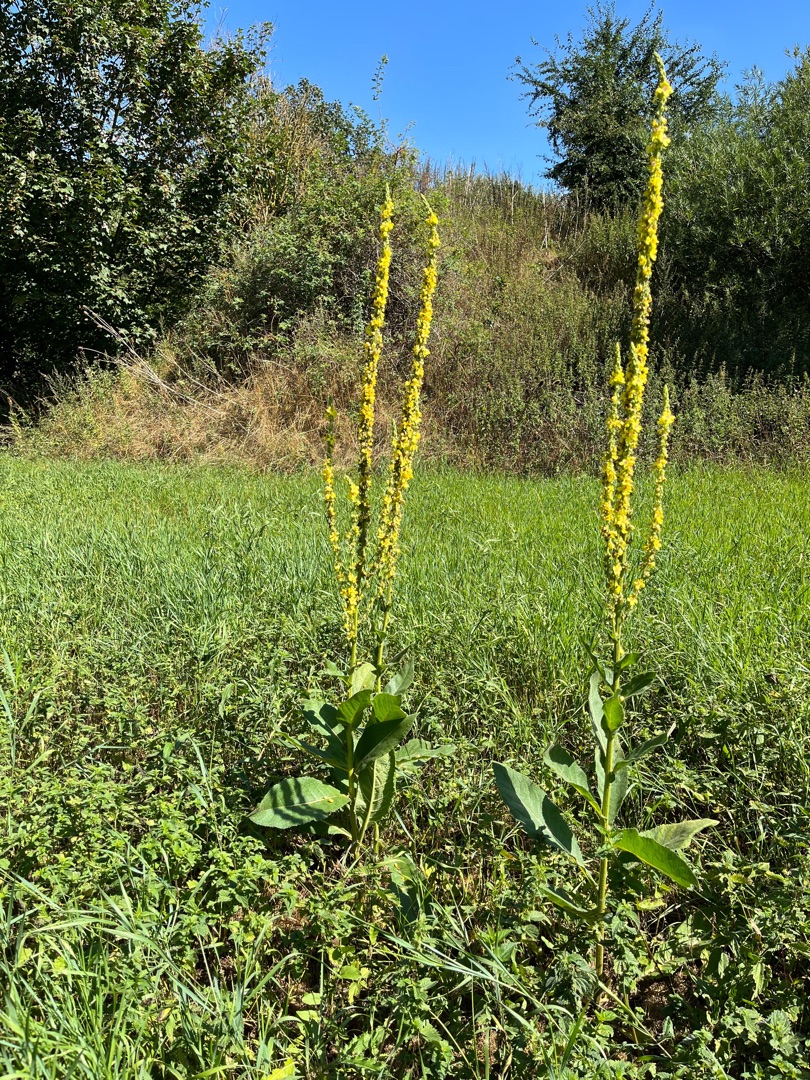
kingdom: Plantae
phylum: Tracheophyta
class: Magnoliopsida
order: Lamiales
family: Scrophulariaceae
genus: Verbascum
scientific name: Verbascum nigrum
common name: Mørk kongelys
